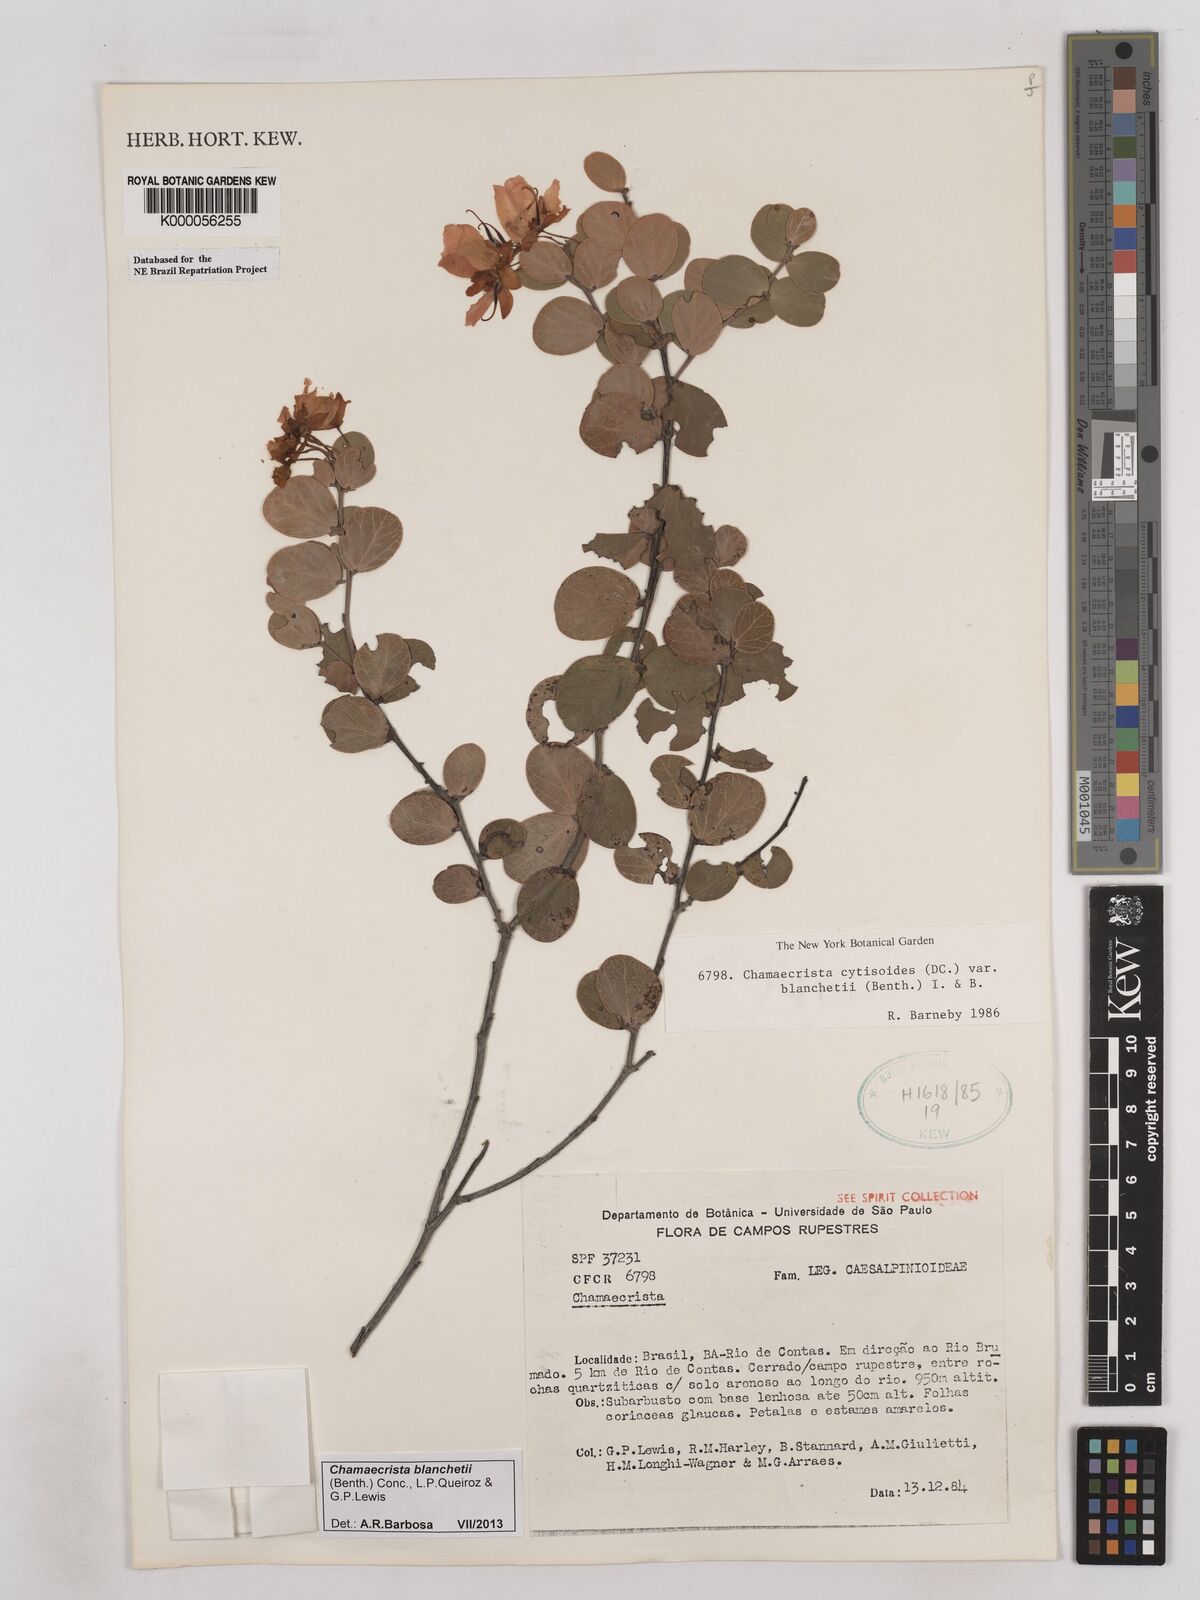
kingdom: Plantae
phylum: Tracheophyta
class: Magnoliopsida
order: Fabales
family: Fabaceae
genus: Chamaecrista
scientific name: Chamaecrista cytisoides
